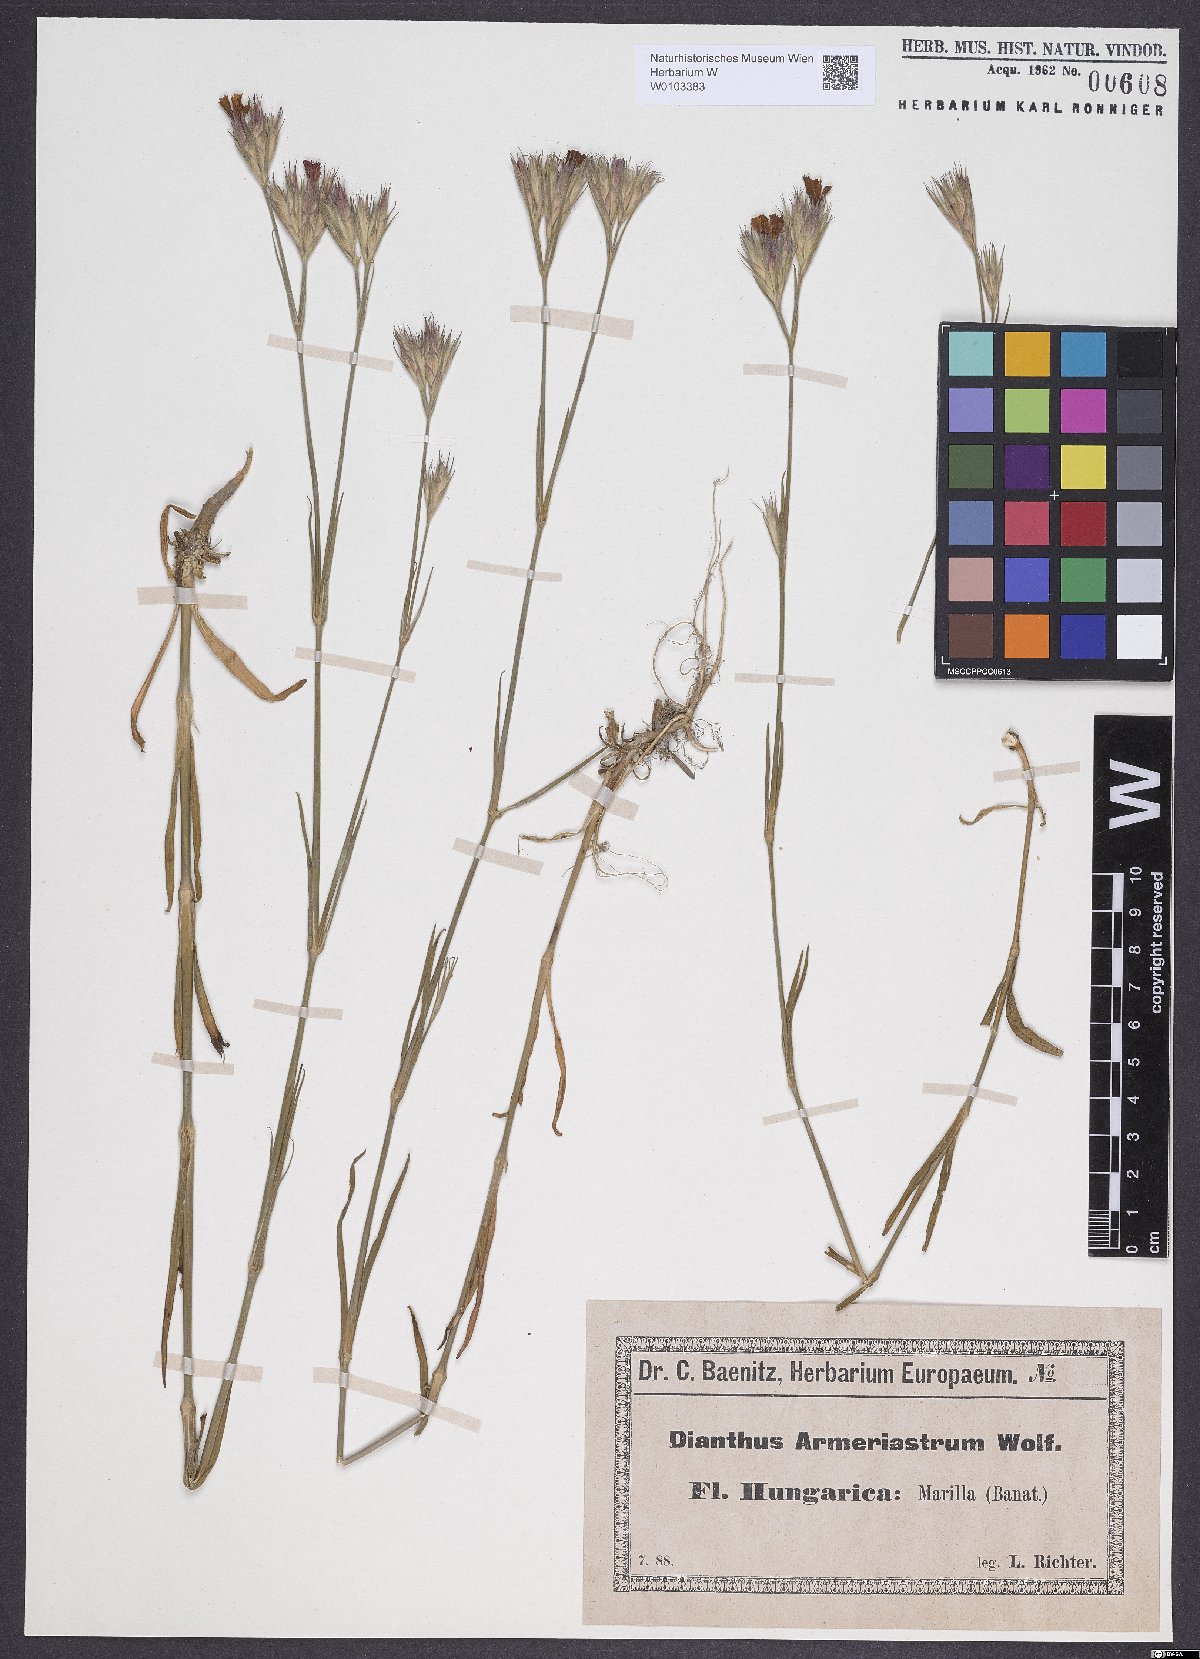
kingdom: Plantae
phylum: Tracheophyta
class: Magnoliopsida
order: Caryophyllales
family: Caryophyllaceae
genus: Dianthus
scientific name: Dianthus corymbosus
